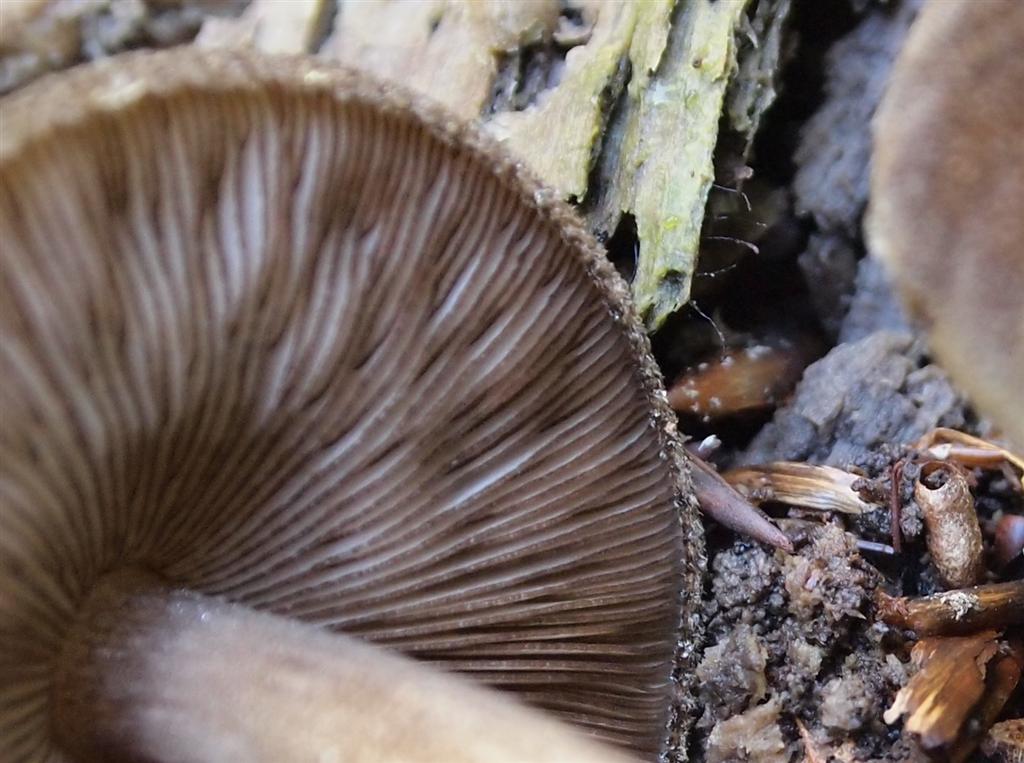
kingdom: Fungi
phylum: Basidiomycota
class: Agaricomycetes
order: Agaricales
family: Pluteaceae
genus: Pluteus
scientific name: Pluteus umbrosus
